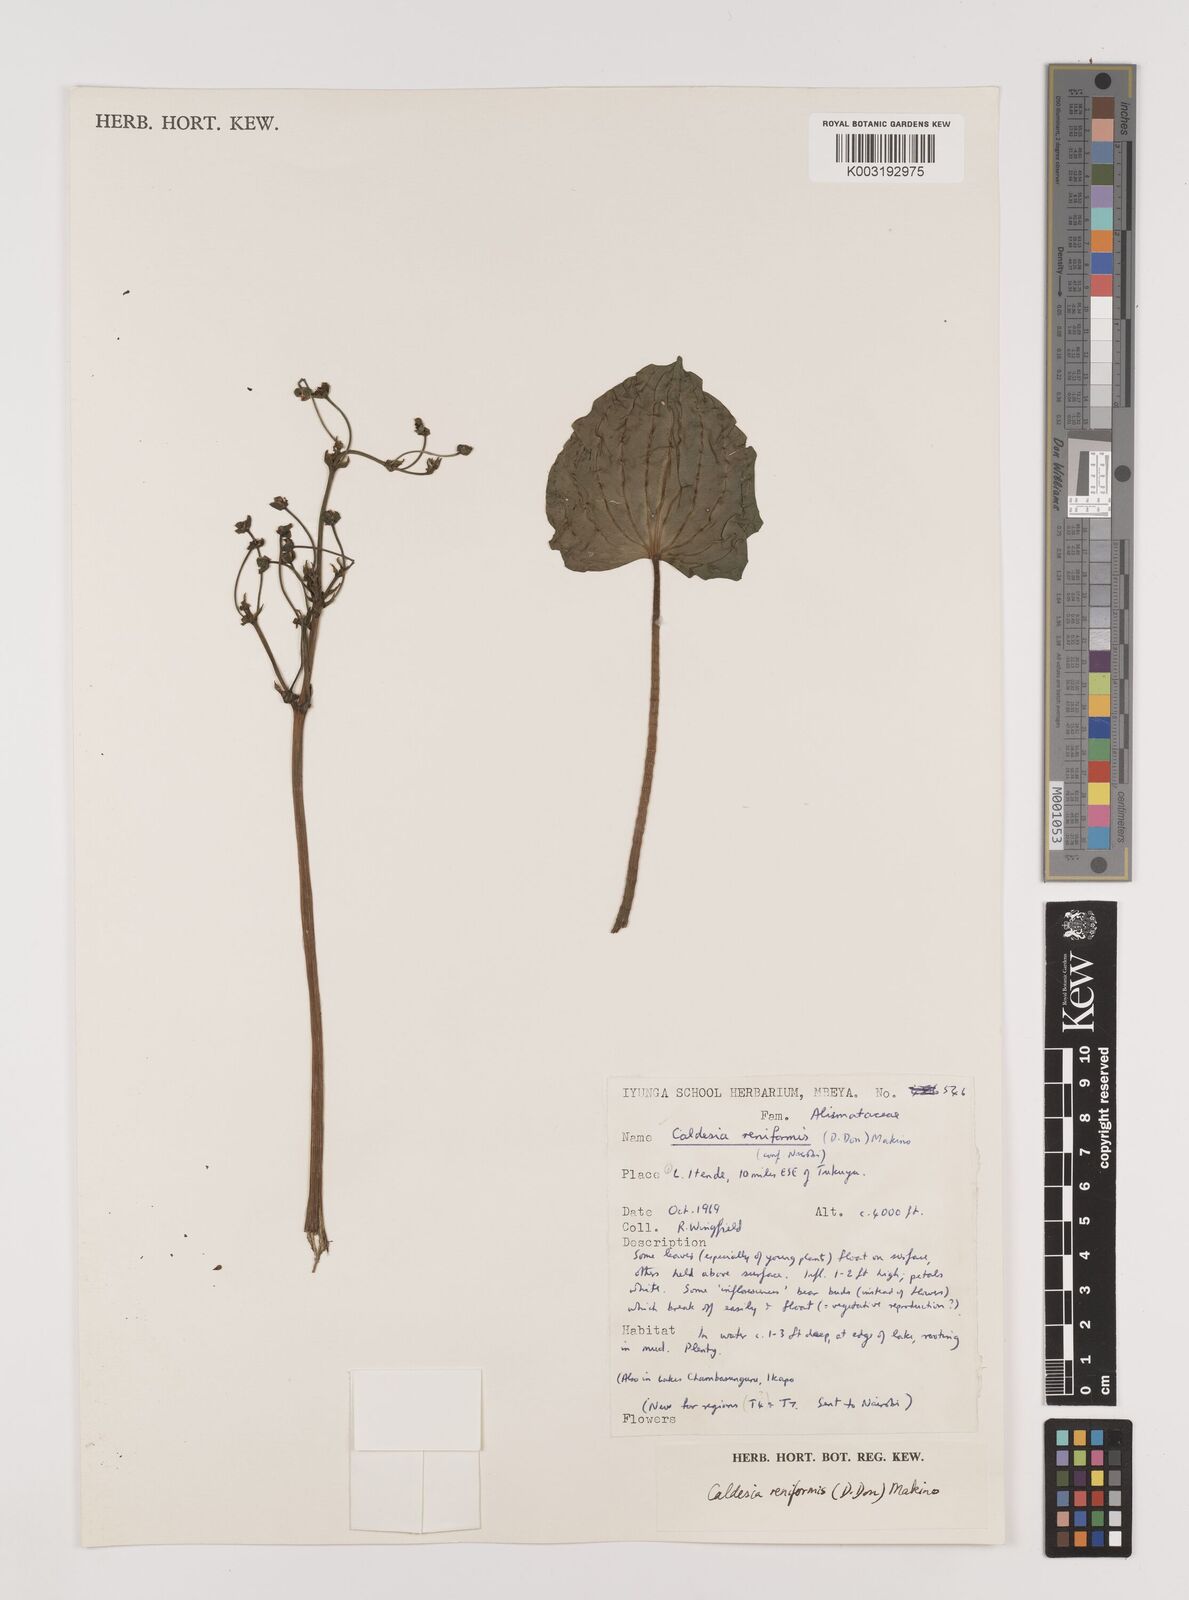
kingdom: Plantae
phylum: Tracheophyta
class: Liliopsida
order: Alismatales
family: Alismataceae
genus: Caldesia
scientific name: Caldesia parnassifolia
